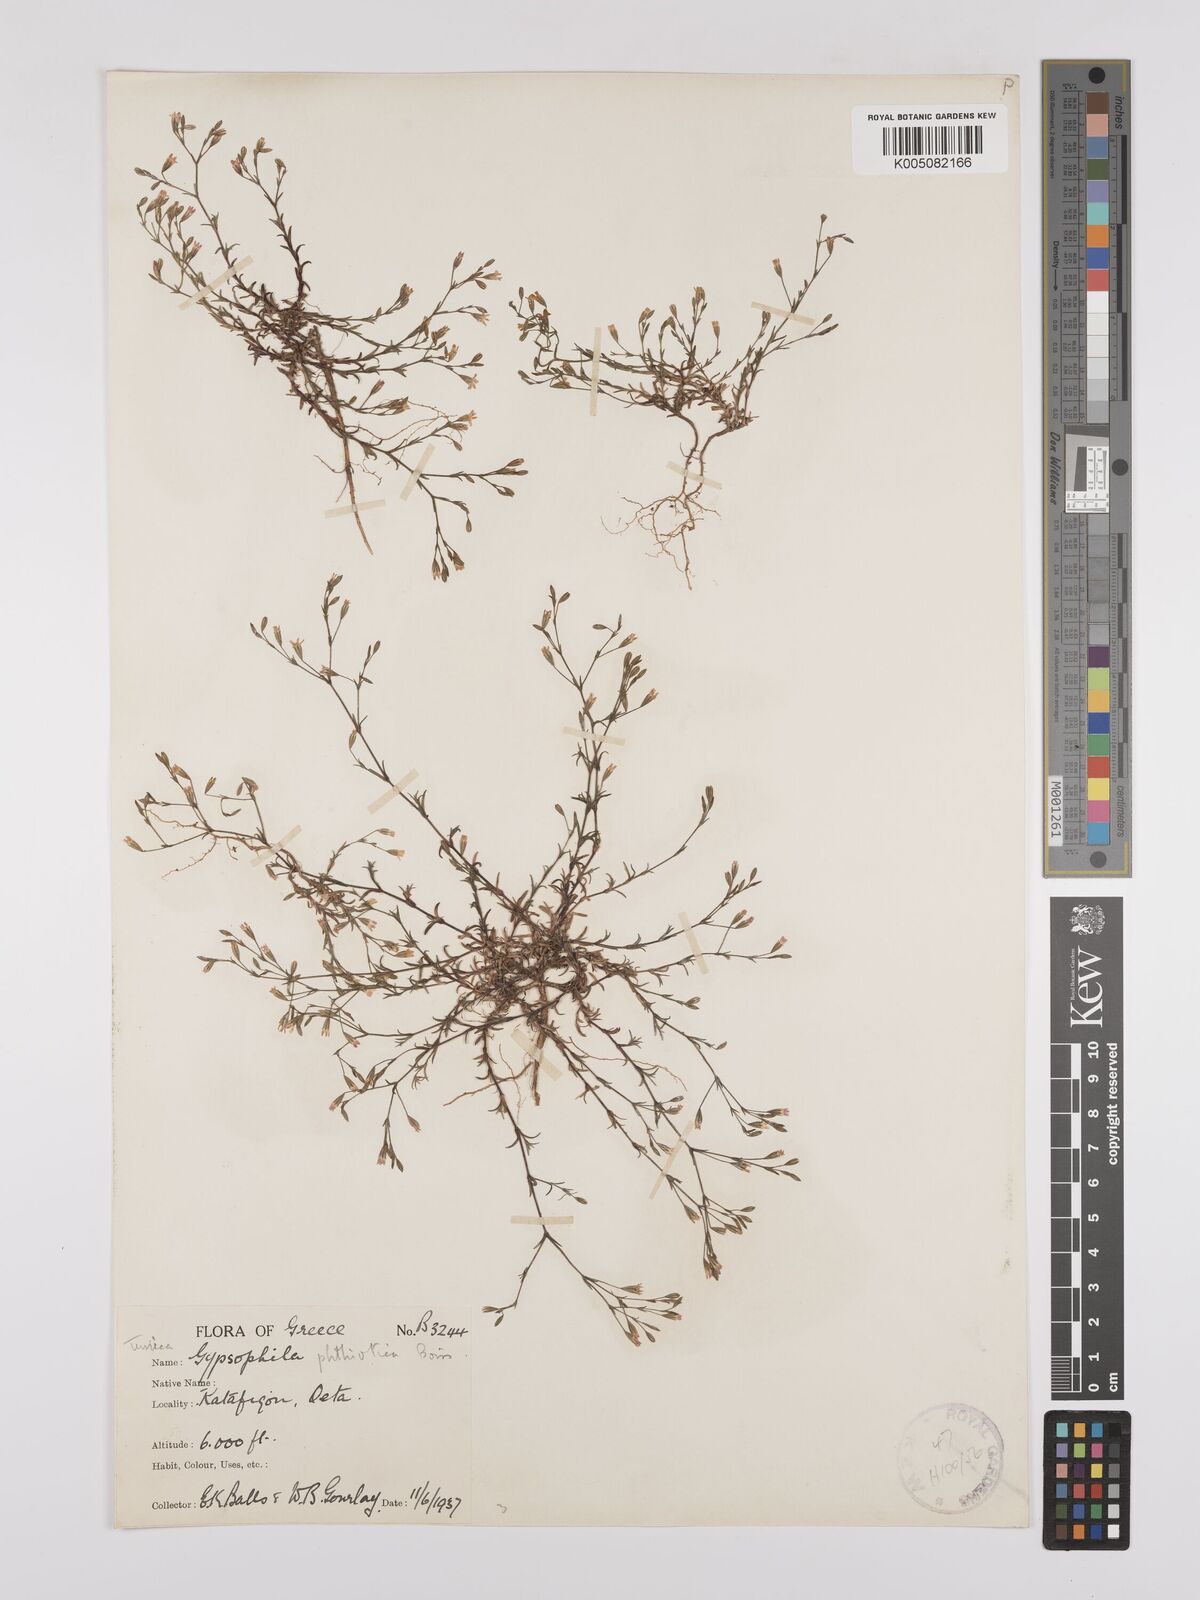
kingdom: Plantae
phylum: Tracheophyta
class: Magnoliopsida
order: Caryophyllales
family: Caryophyllaceae
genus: Petrorhagia
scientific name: Petrorhagia phthiotica
